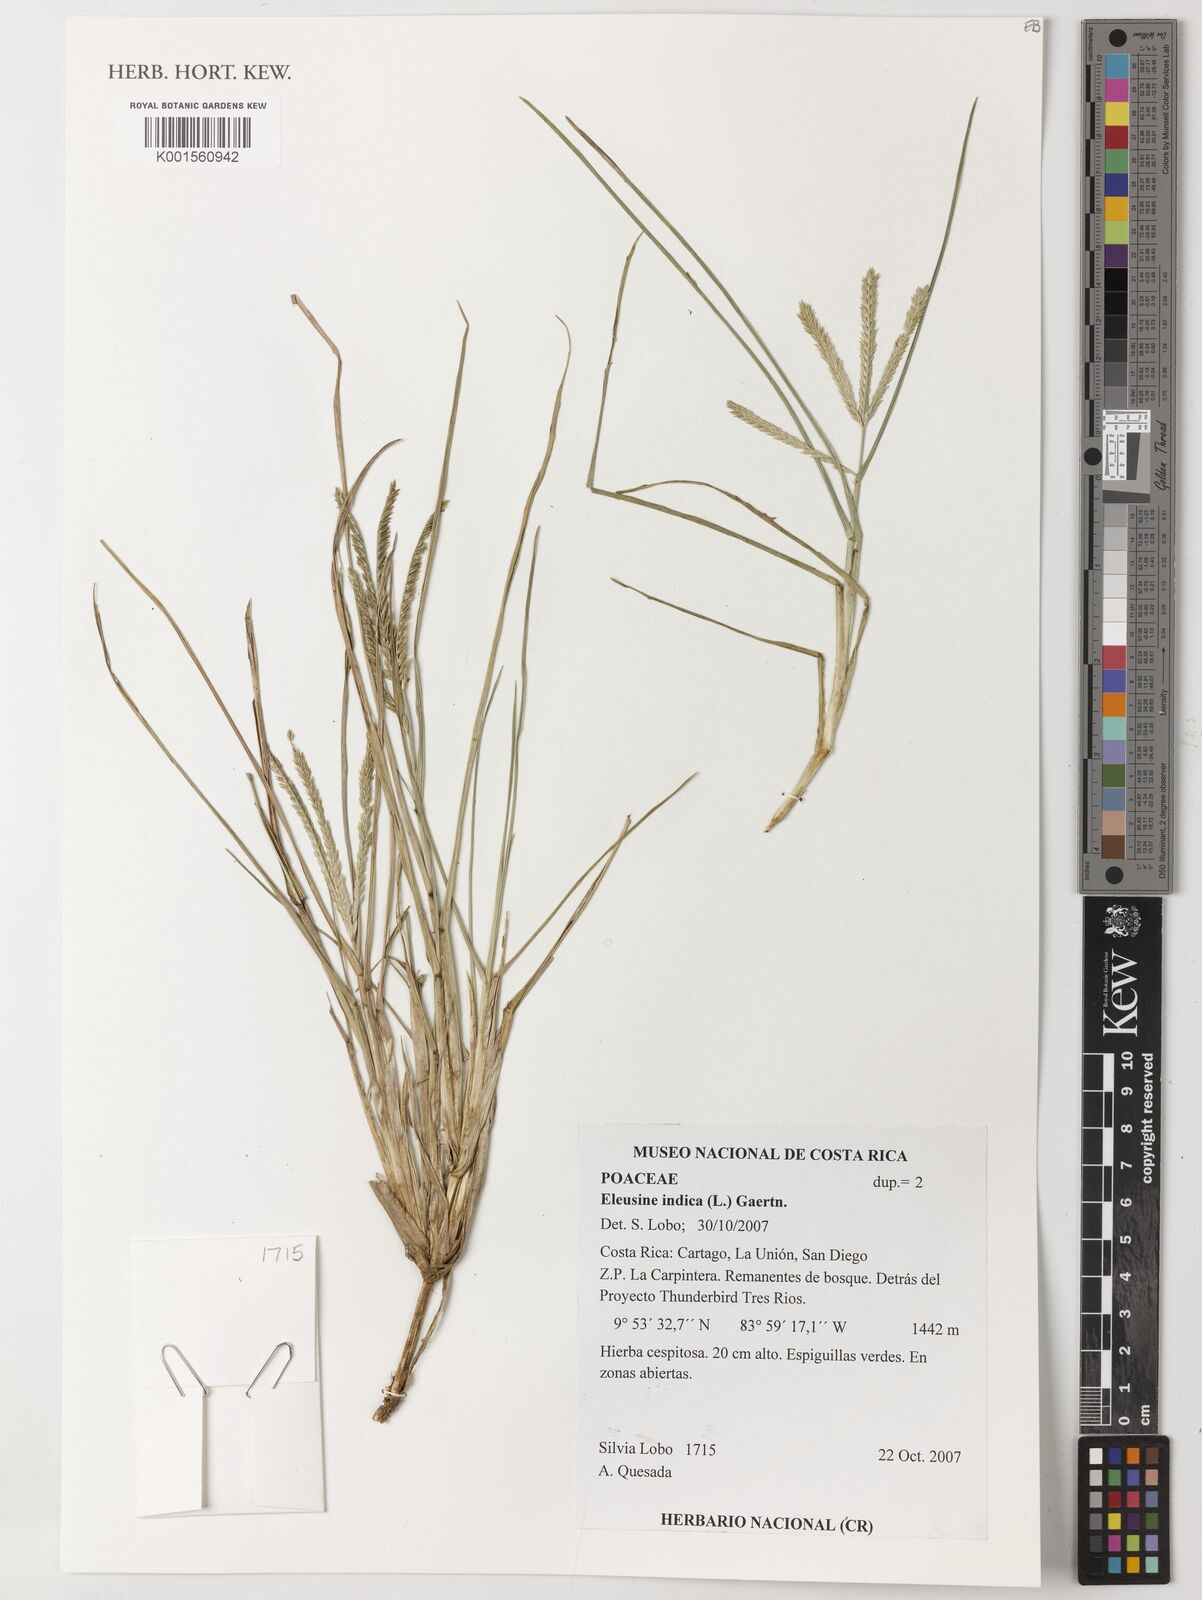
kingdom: Plantae
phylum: Tracheophyta
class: Liliopsida
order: Poales
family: Poaceae
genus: Eleusine
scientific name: Eleusine indica
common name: Yard-grass
